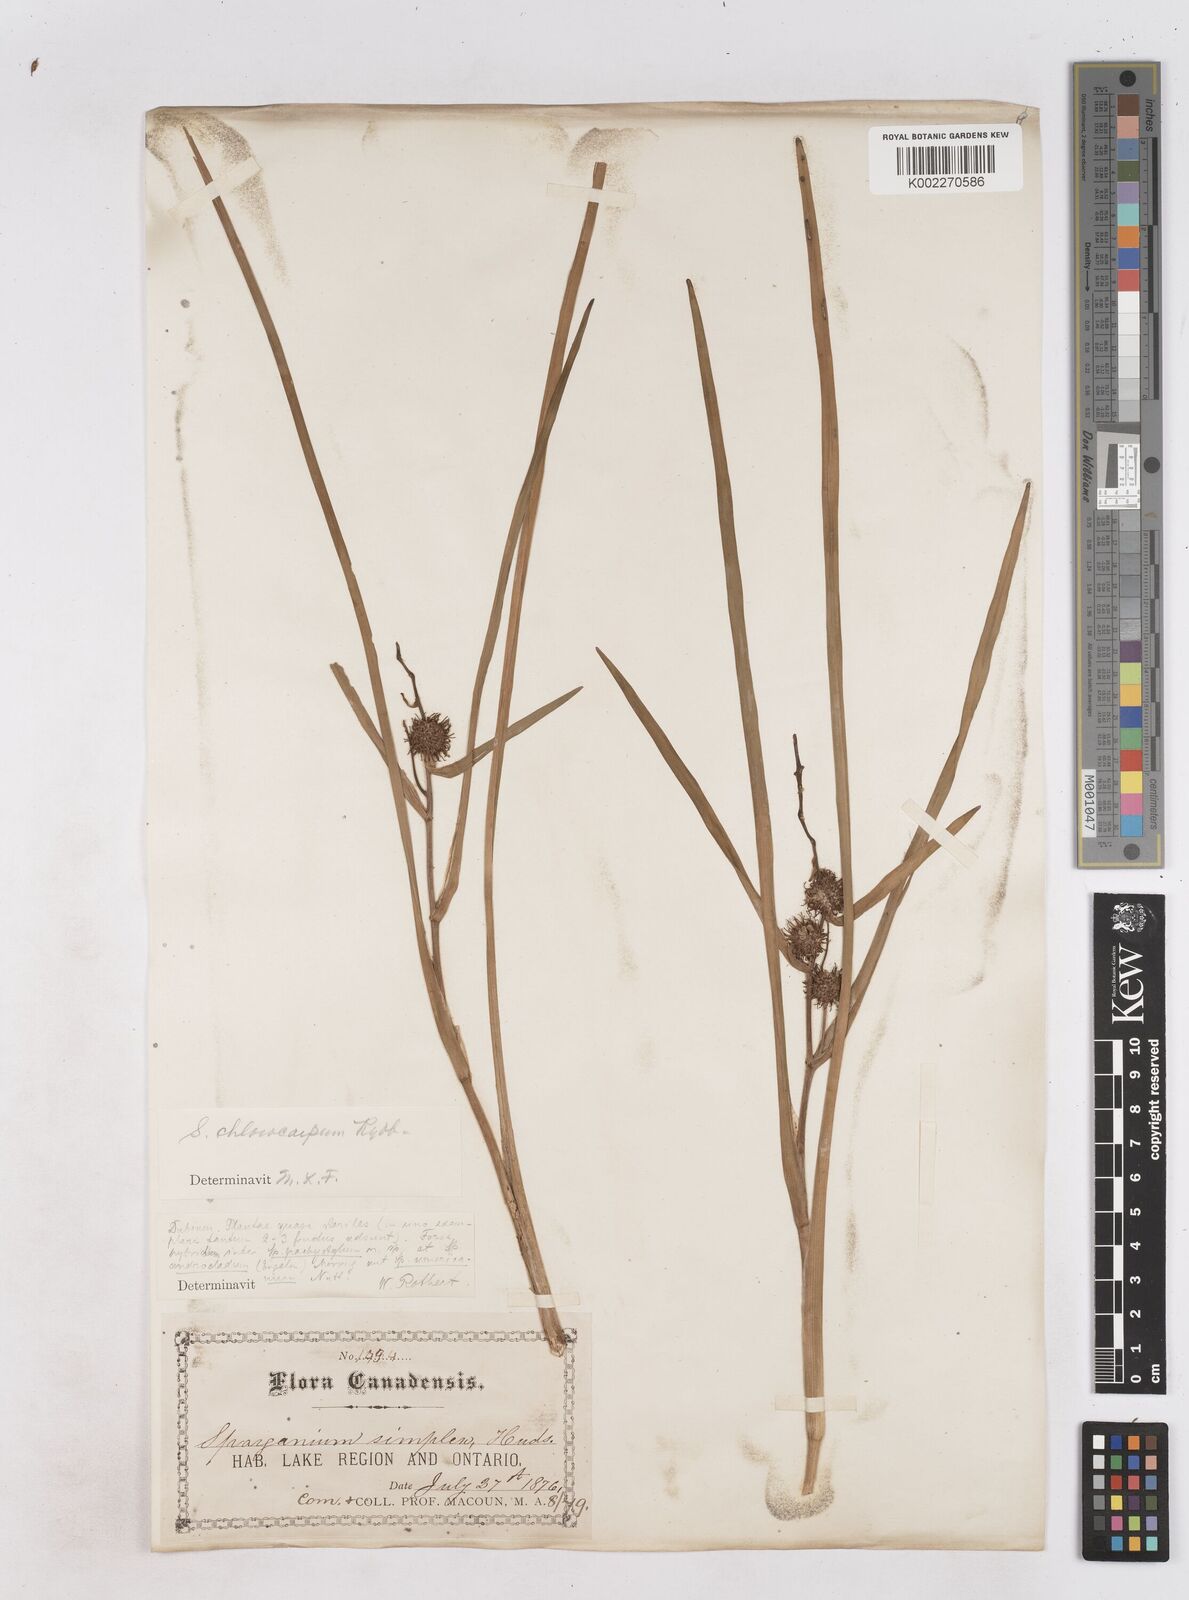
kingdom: Plantae
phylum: Tracheophyta
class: Liliopsida
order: Poales
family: Typhaceae
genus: Sparganium
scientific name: Sparganium emersum
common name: Unbranched bur-reed
